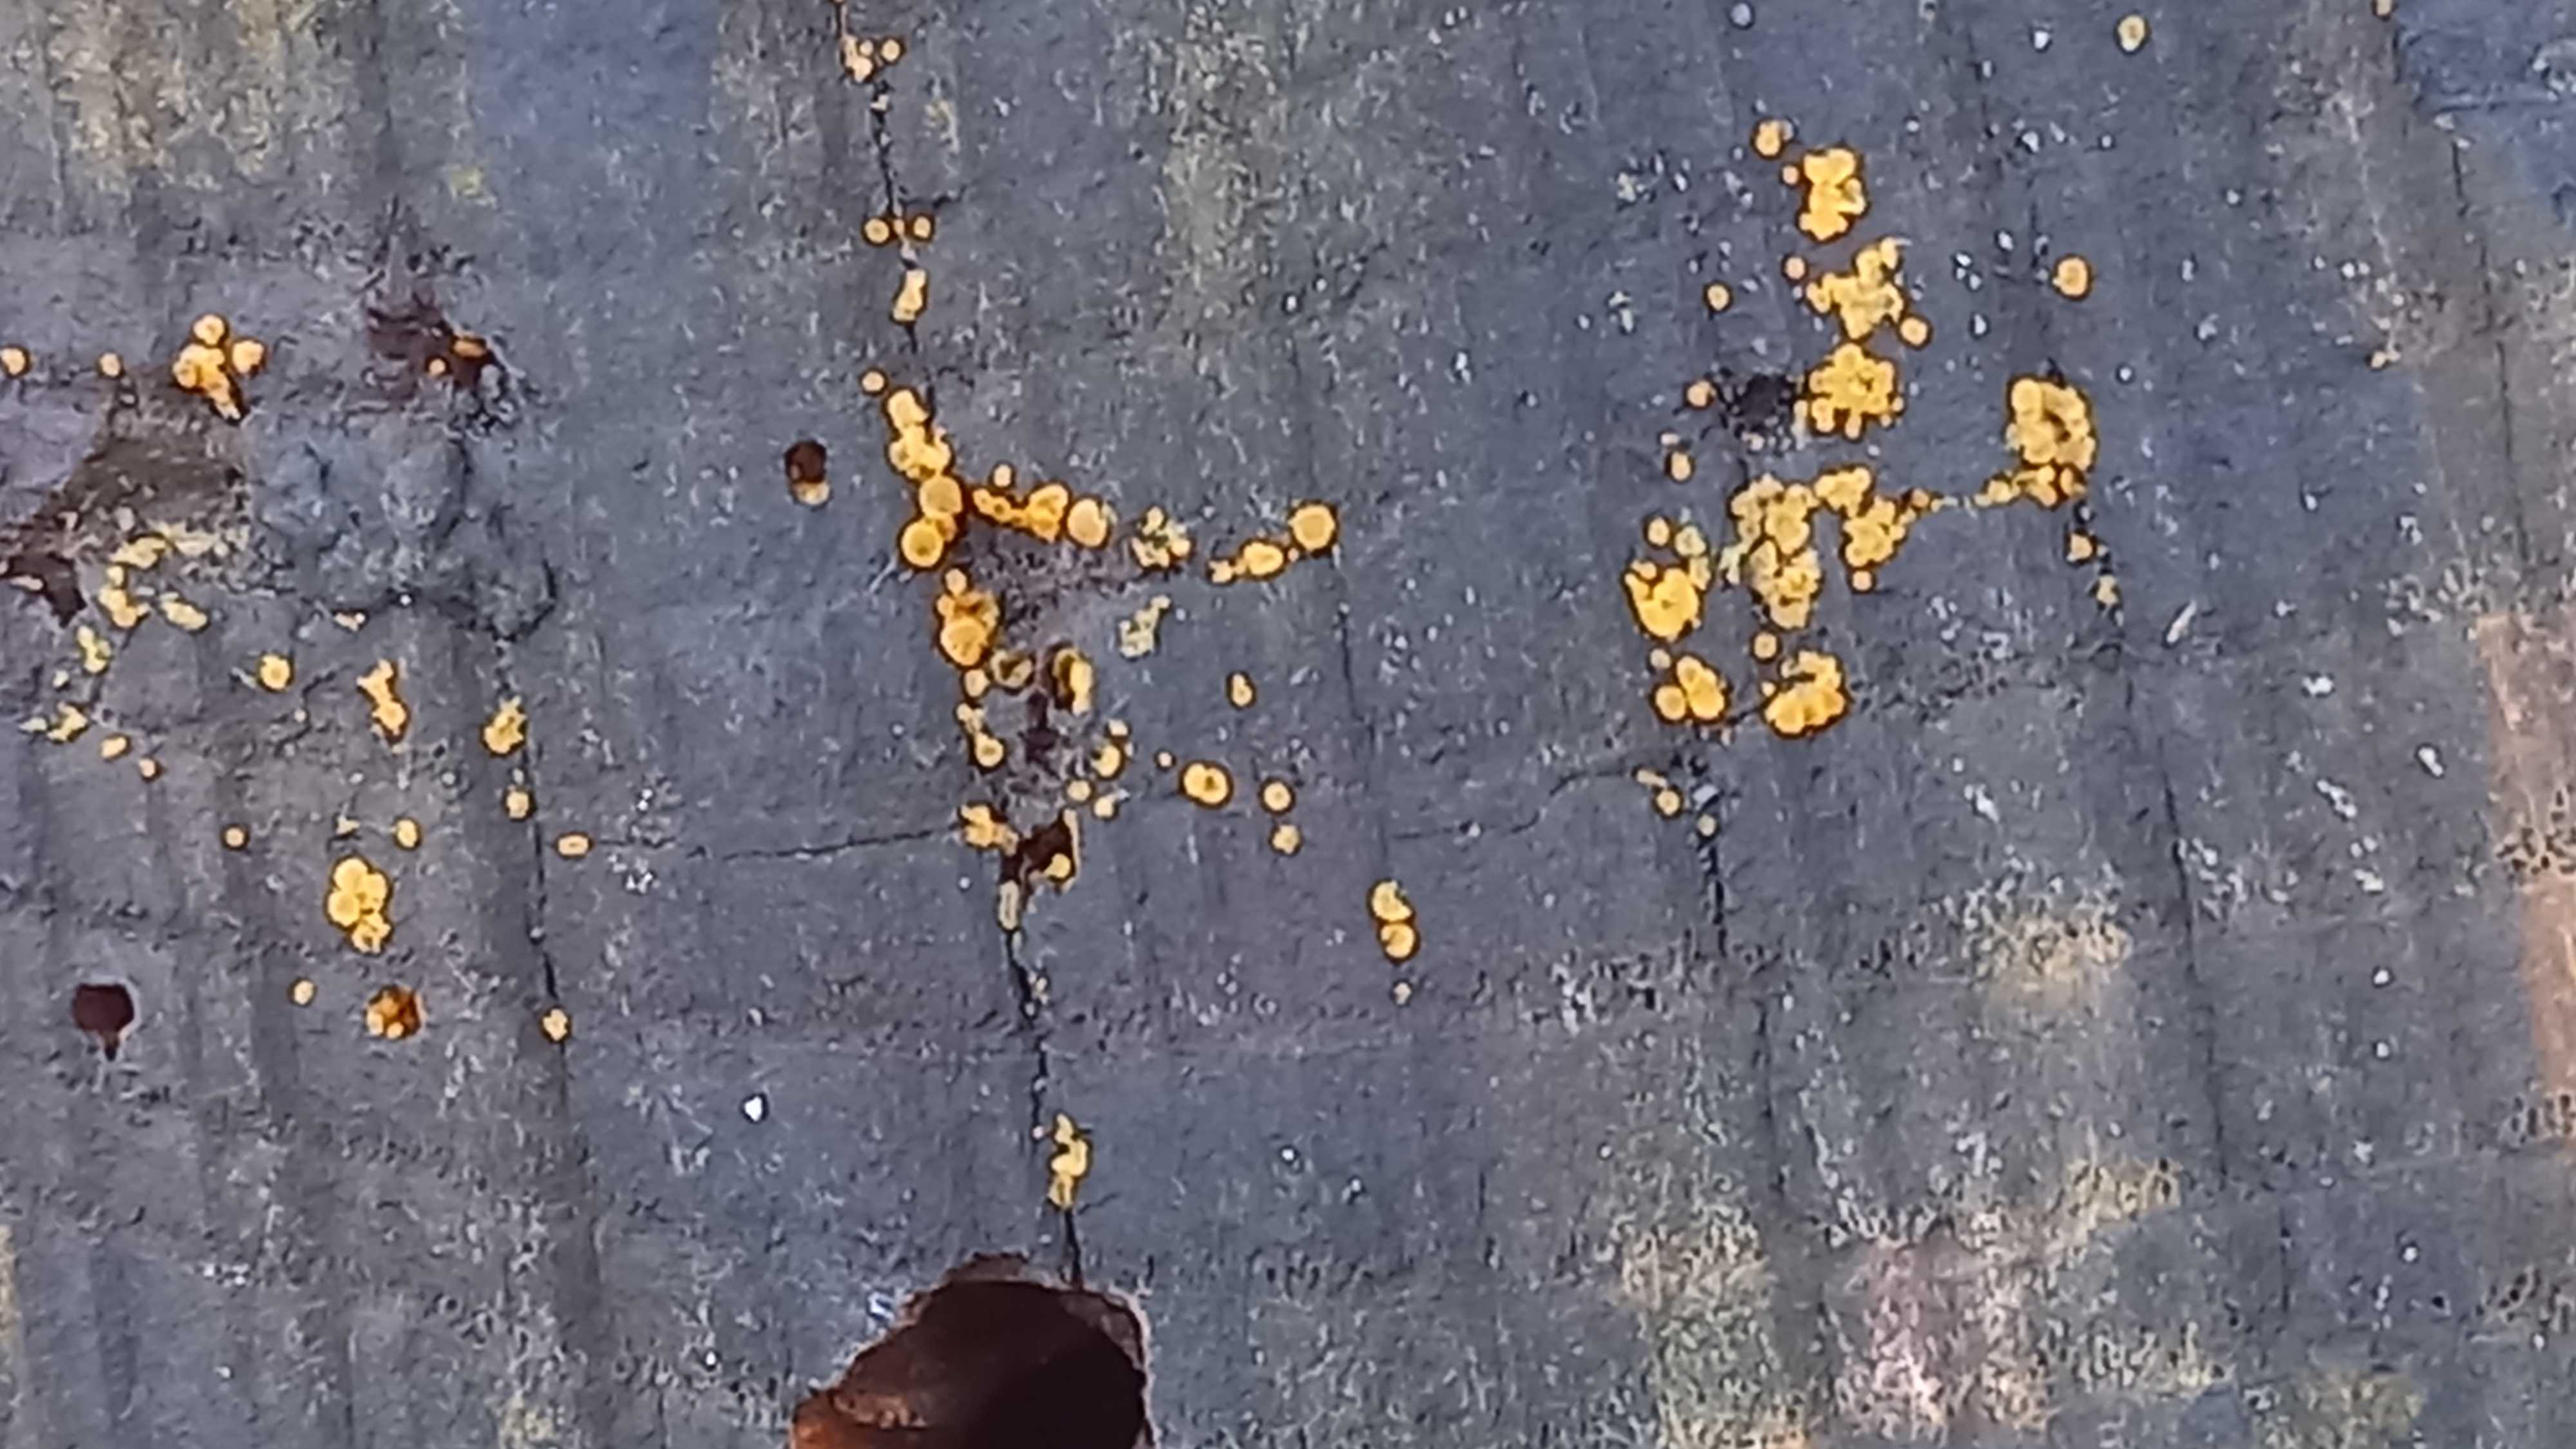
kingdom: Fungi
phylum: Ascomycota
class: Leotiomycetes
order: Helotiales
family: Helotiaceae
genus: Bispora
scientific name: Bispora pallescens
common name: måtte-snitskive
